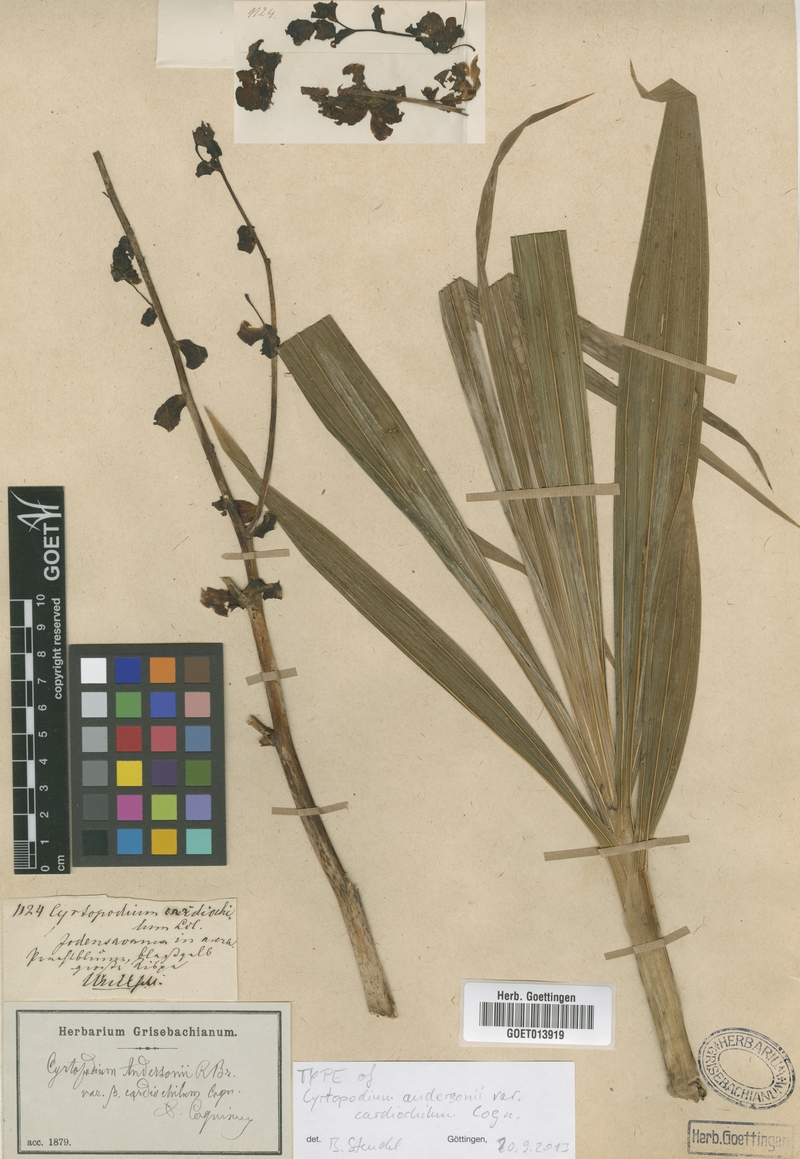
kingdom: Plantae
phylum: Tracheophyta
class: Liliopsida
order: Asparagales
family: Orchidaceae
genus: Cyrtopodium
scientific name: Cyrtopodium andersonii
